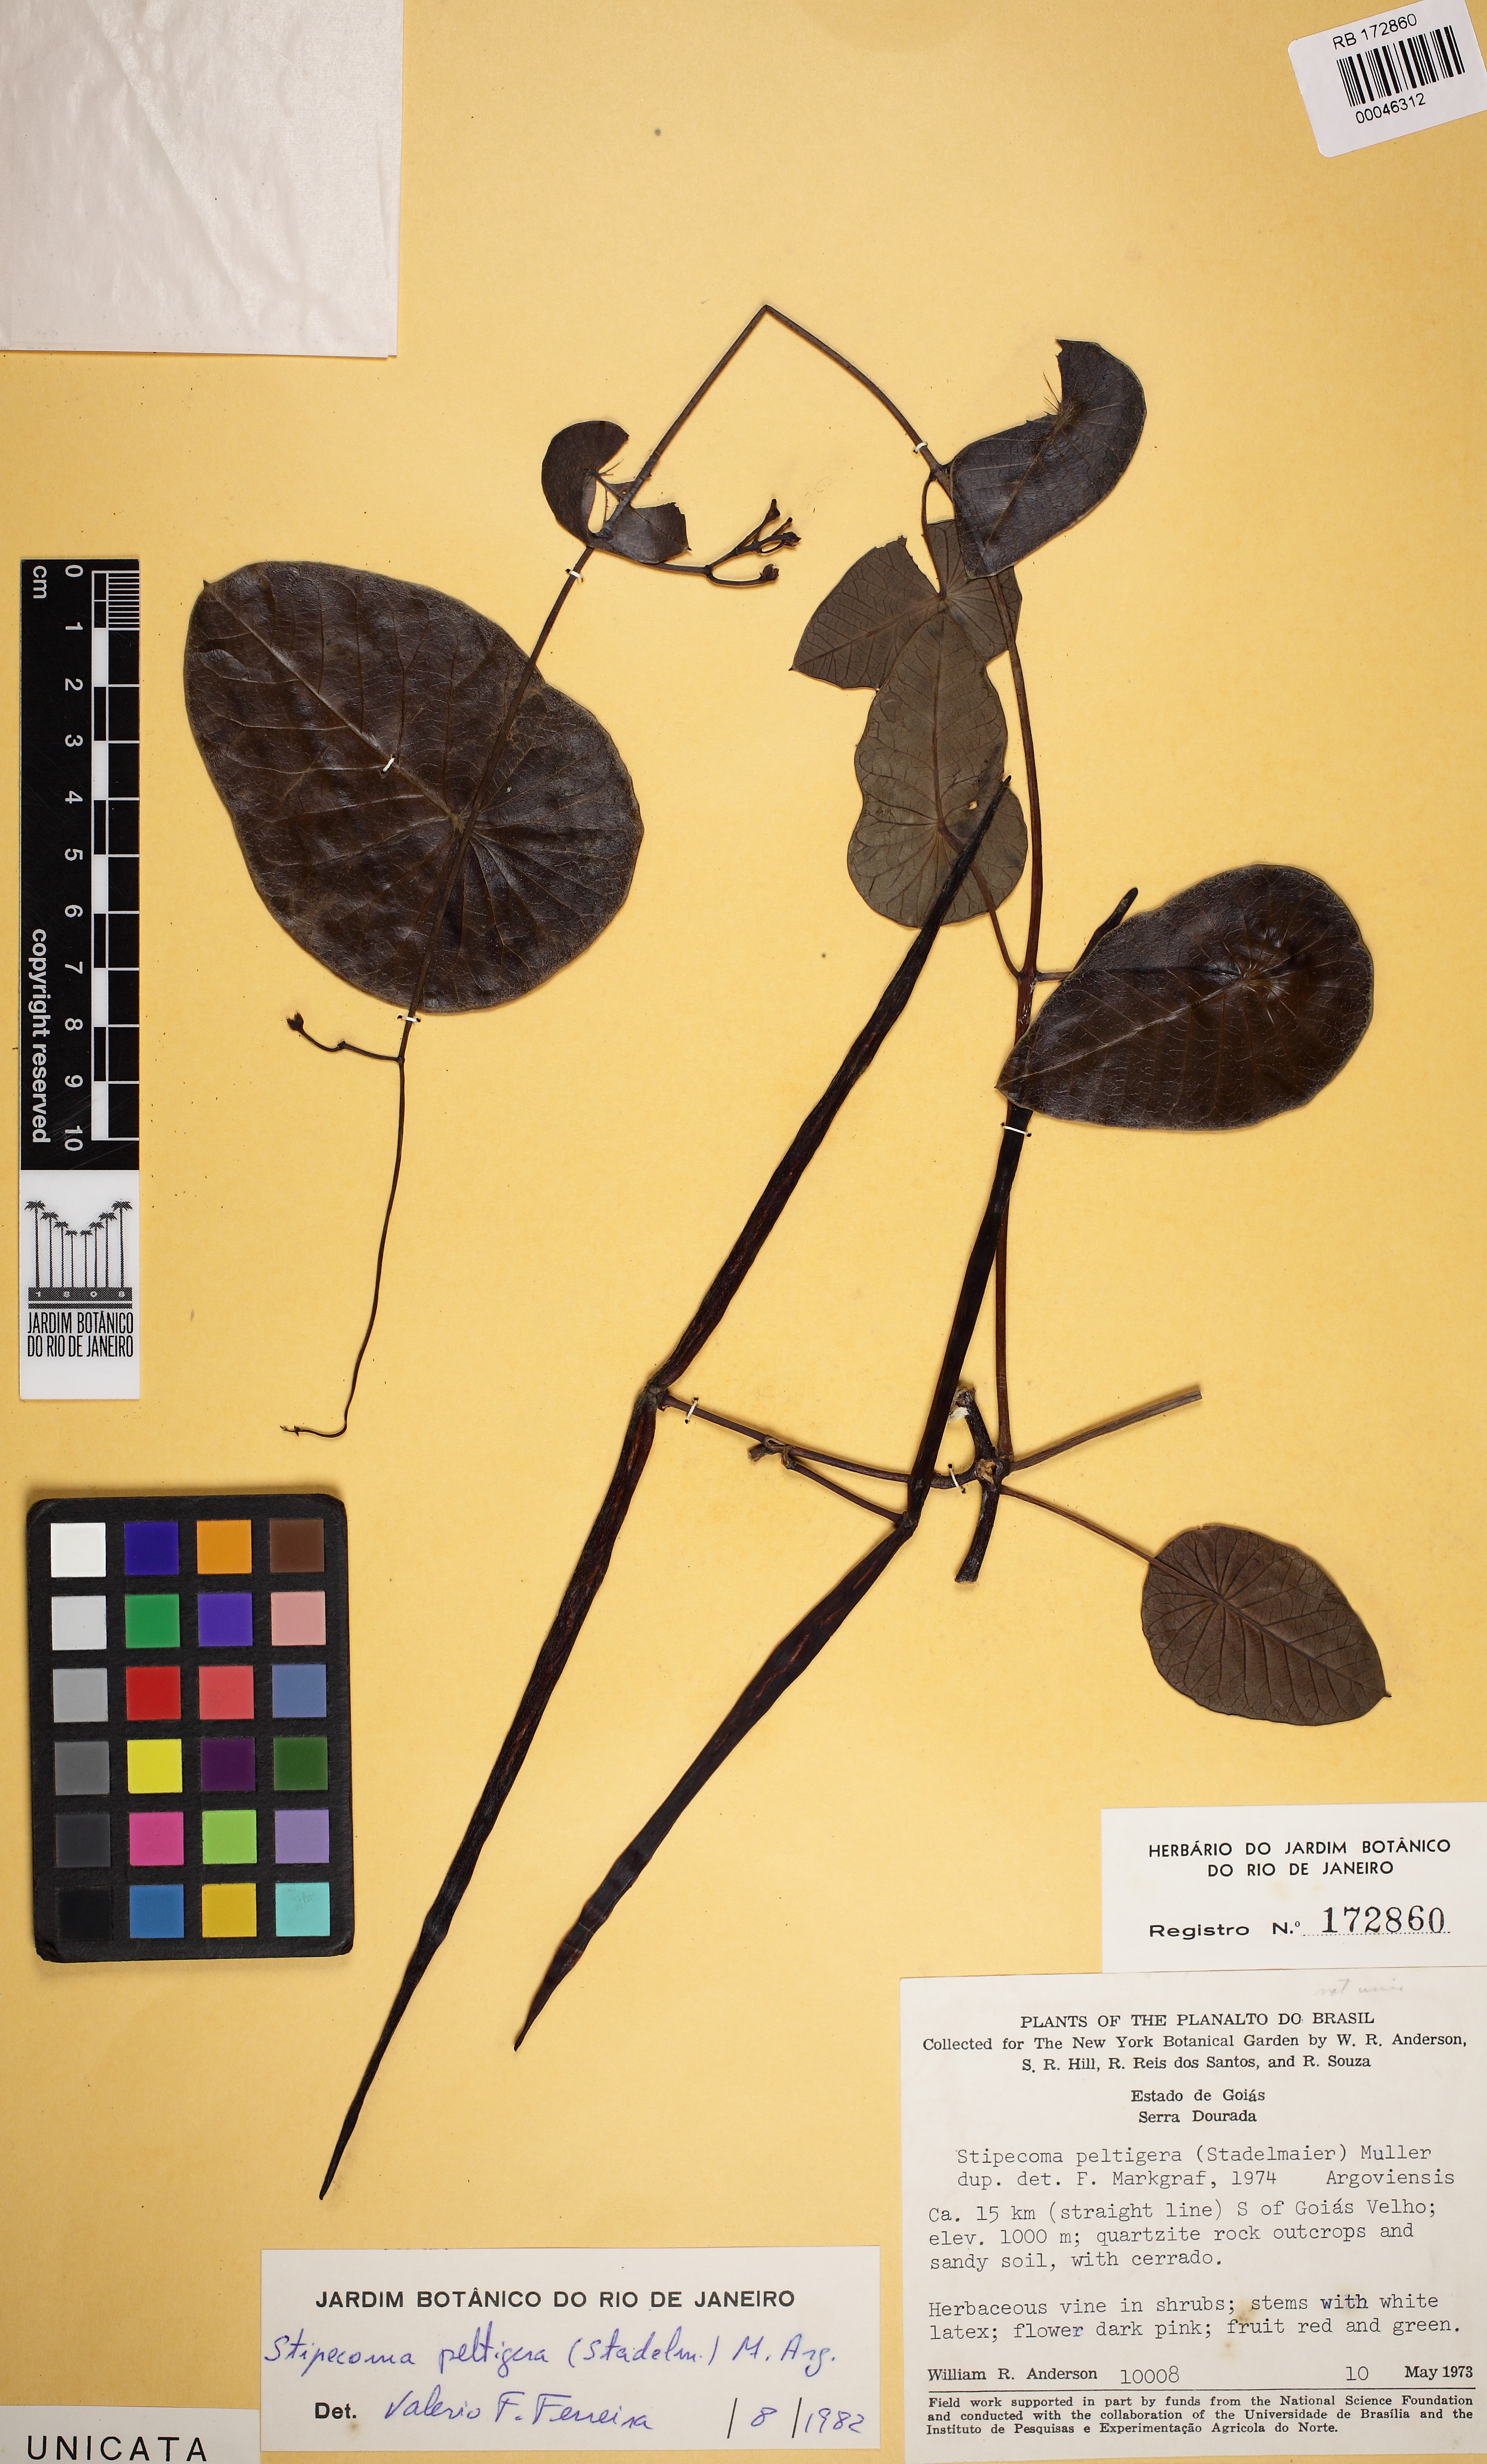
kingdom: Plantae
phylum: Tracheophyta
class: Magnoliopsida
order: Gentianales
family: Apocynaceae
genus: Stipecoma
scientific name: Stipecoma peltigera
